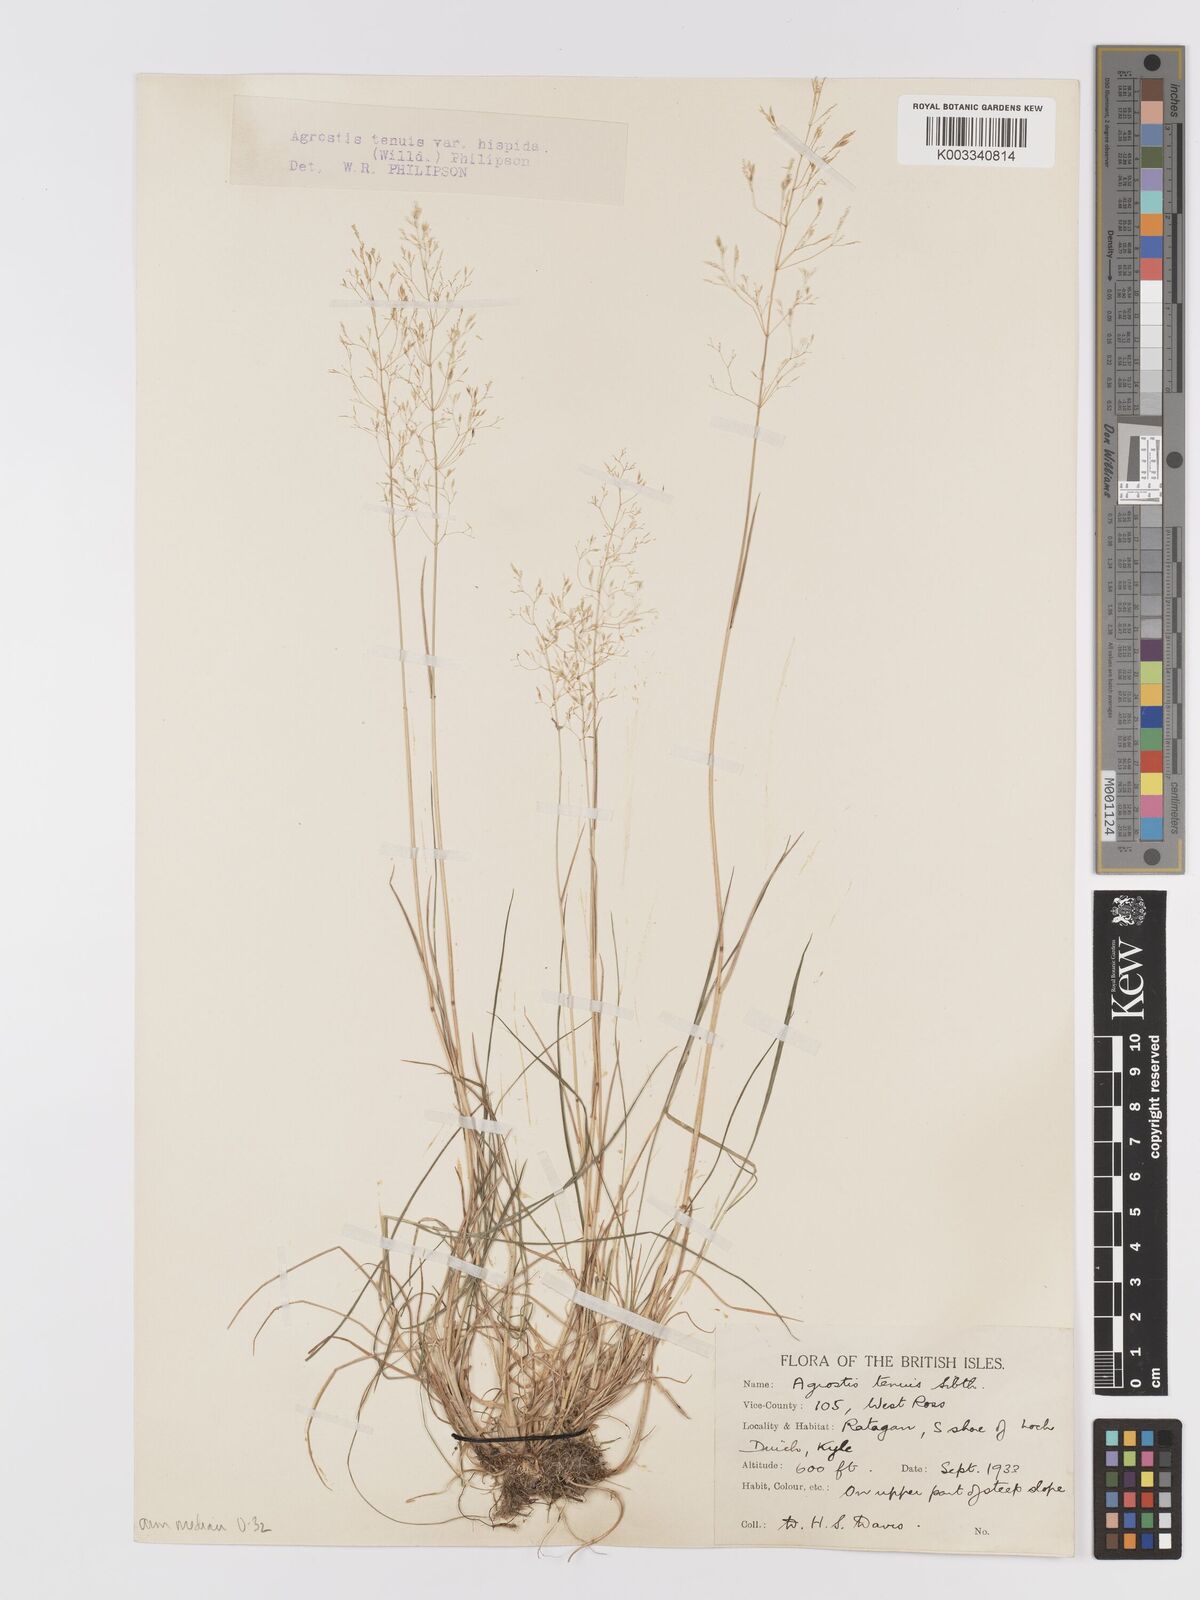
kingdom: Plantae
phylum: Tracheophyta
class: Liliopsida
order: Poales
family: Poaceae
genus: Agrostis
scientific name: Agrostis capillaris
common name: Colonial bentgrass
